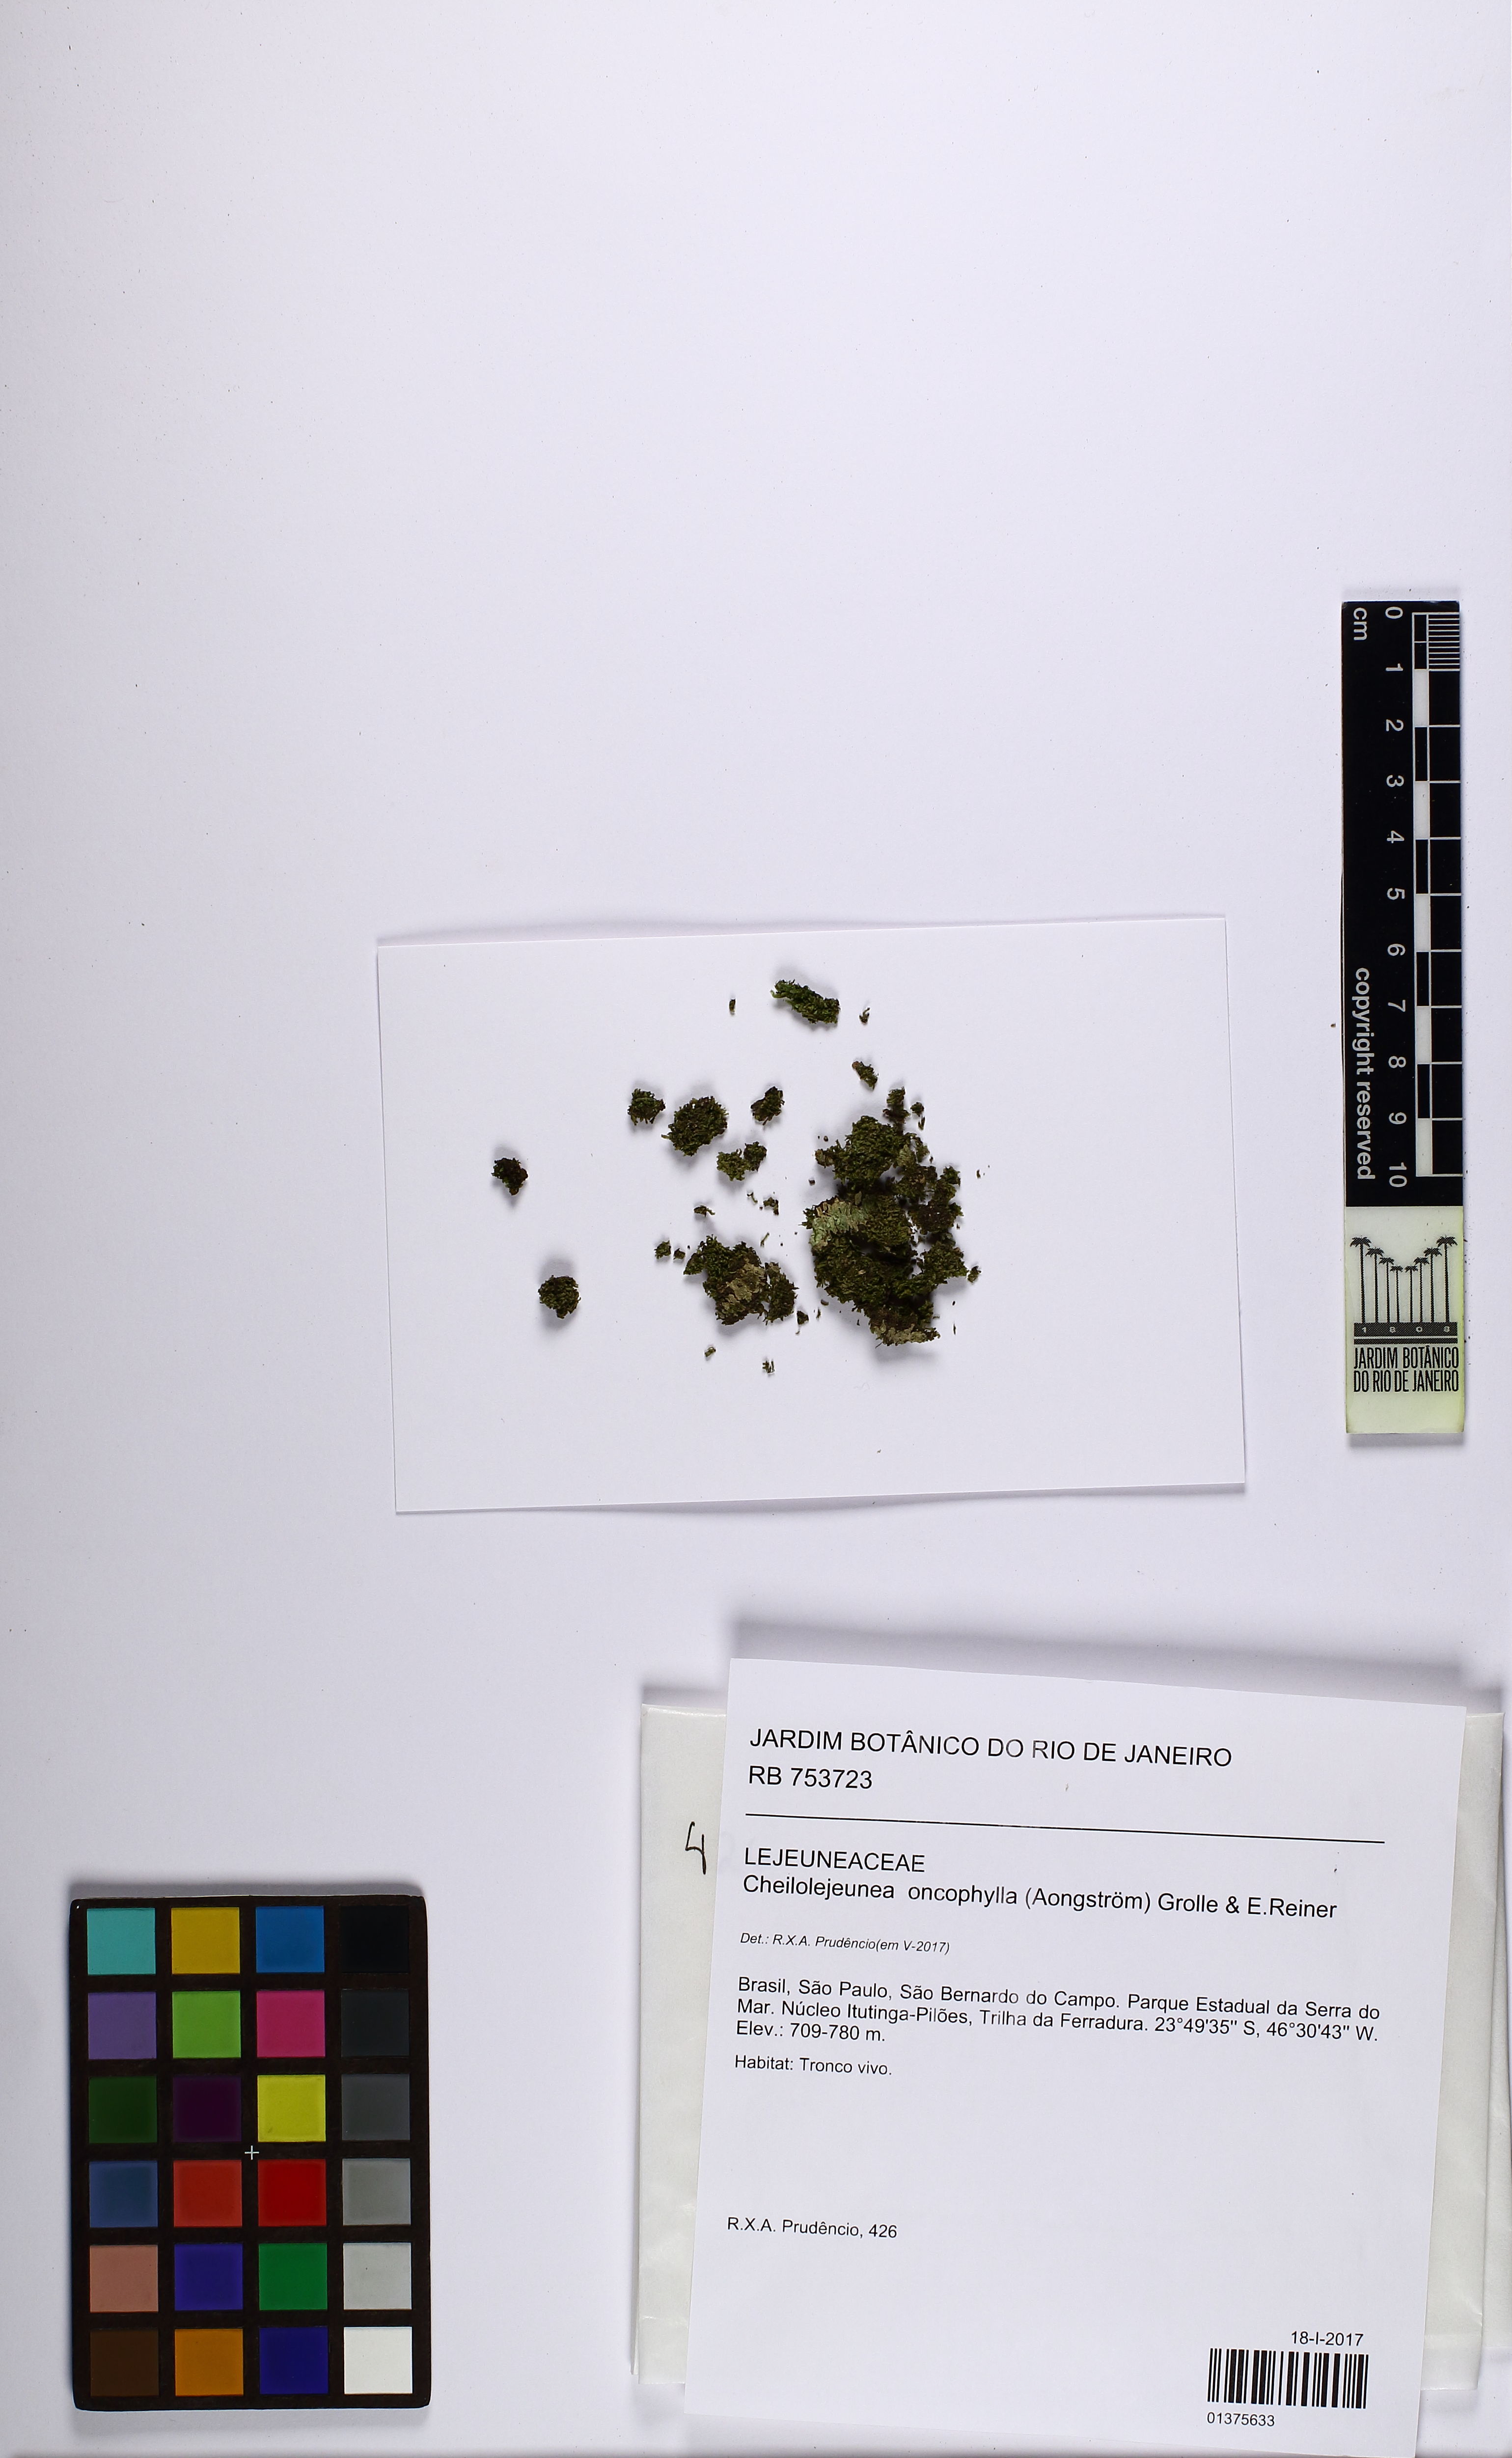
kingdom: Plantae
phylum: Marchantiophyta
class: Jungermanniopsida
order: Porellales
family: Lejeuneaceae
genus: Cheilolejeunea
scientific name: Cheilolejeunea lobulata
